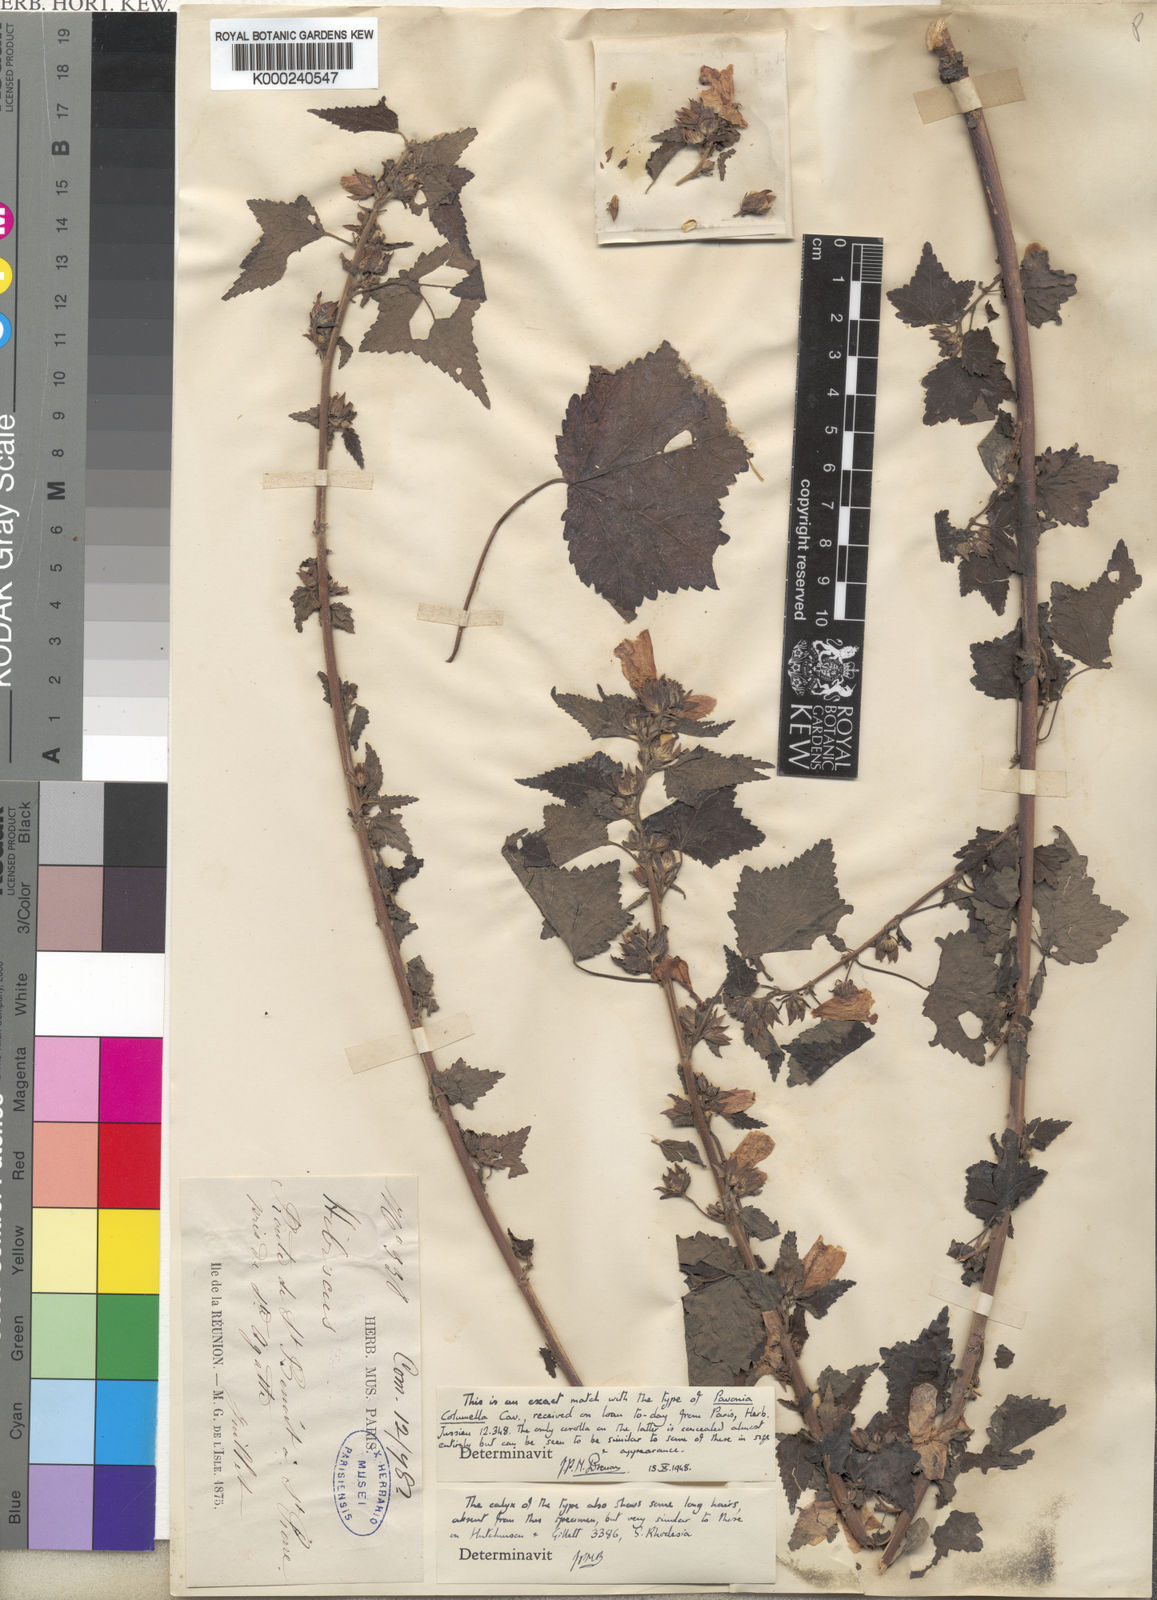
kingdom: Plantae
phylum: Tracheophyta
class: Magnoliopsida
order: Malvales
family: Malvaceae
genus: Pavonia
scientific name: Pavonia columella
